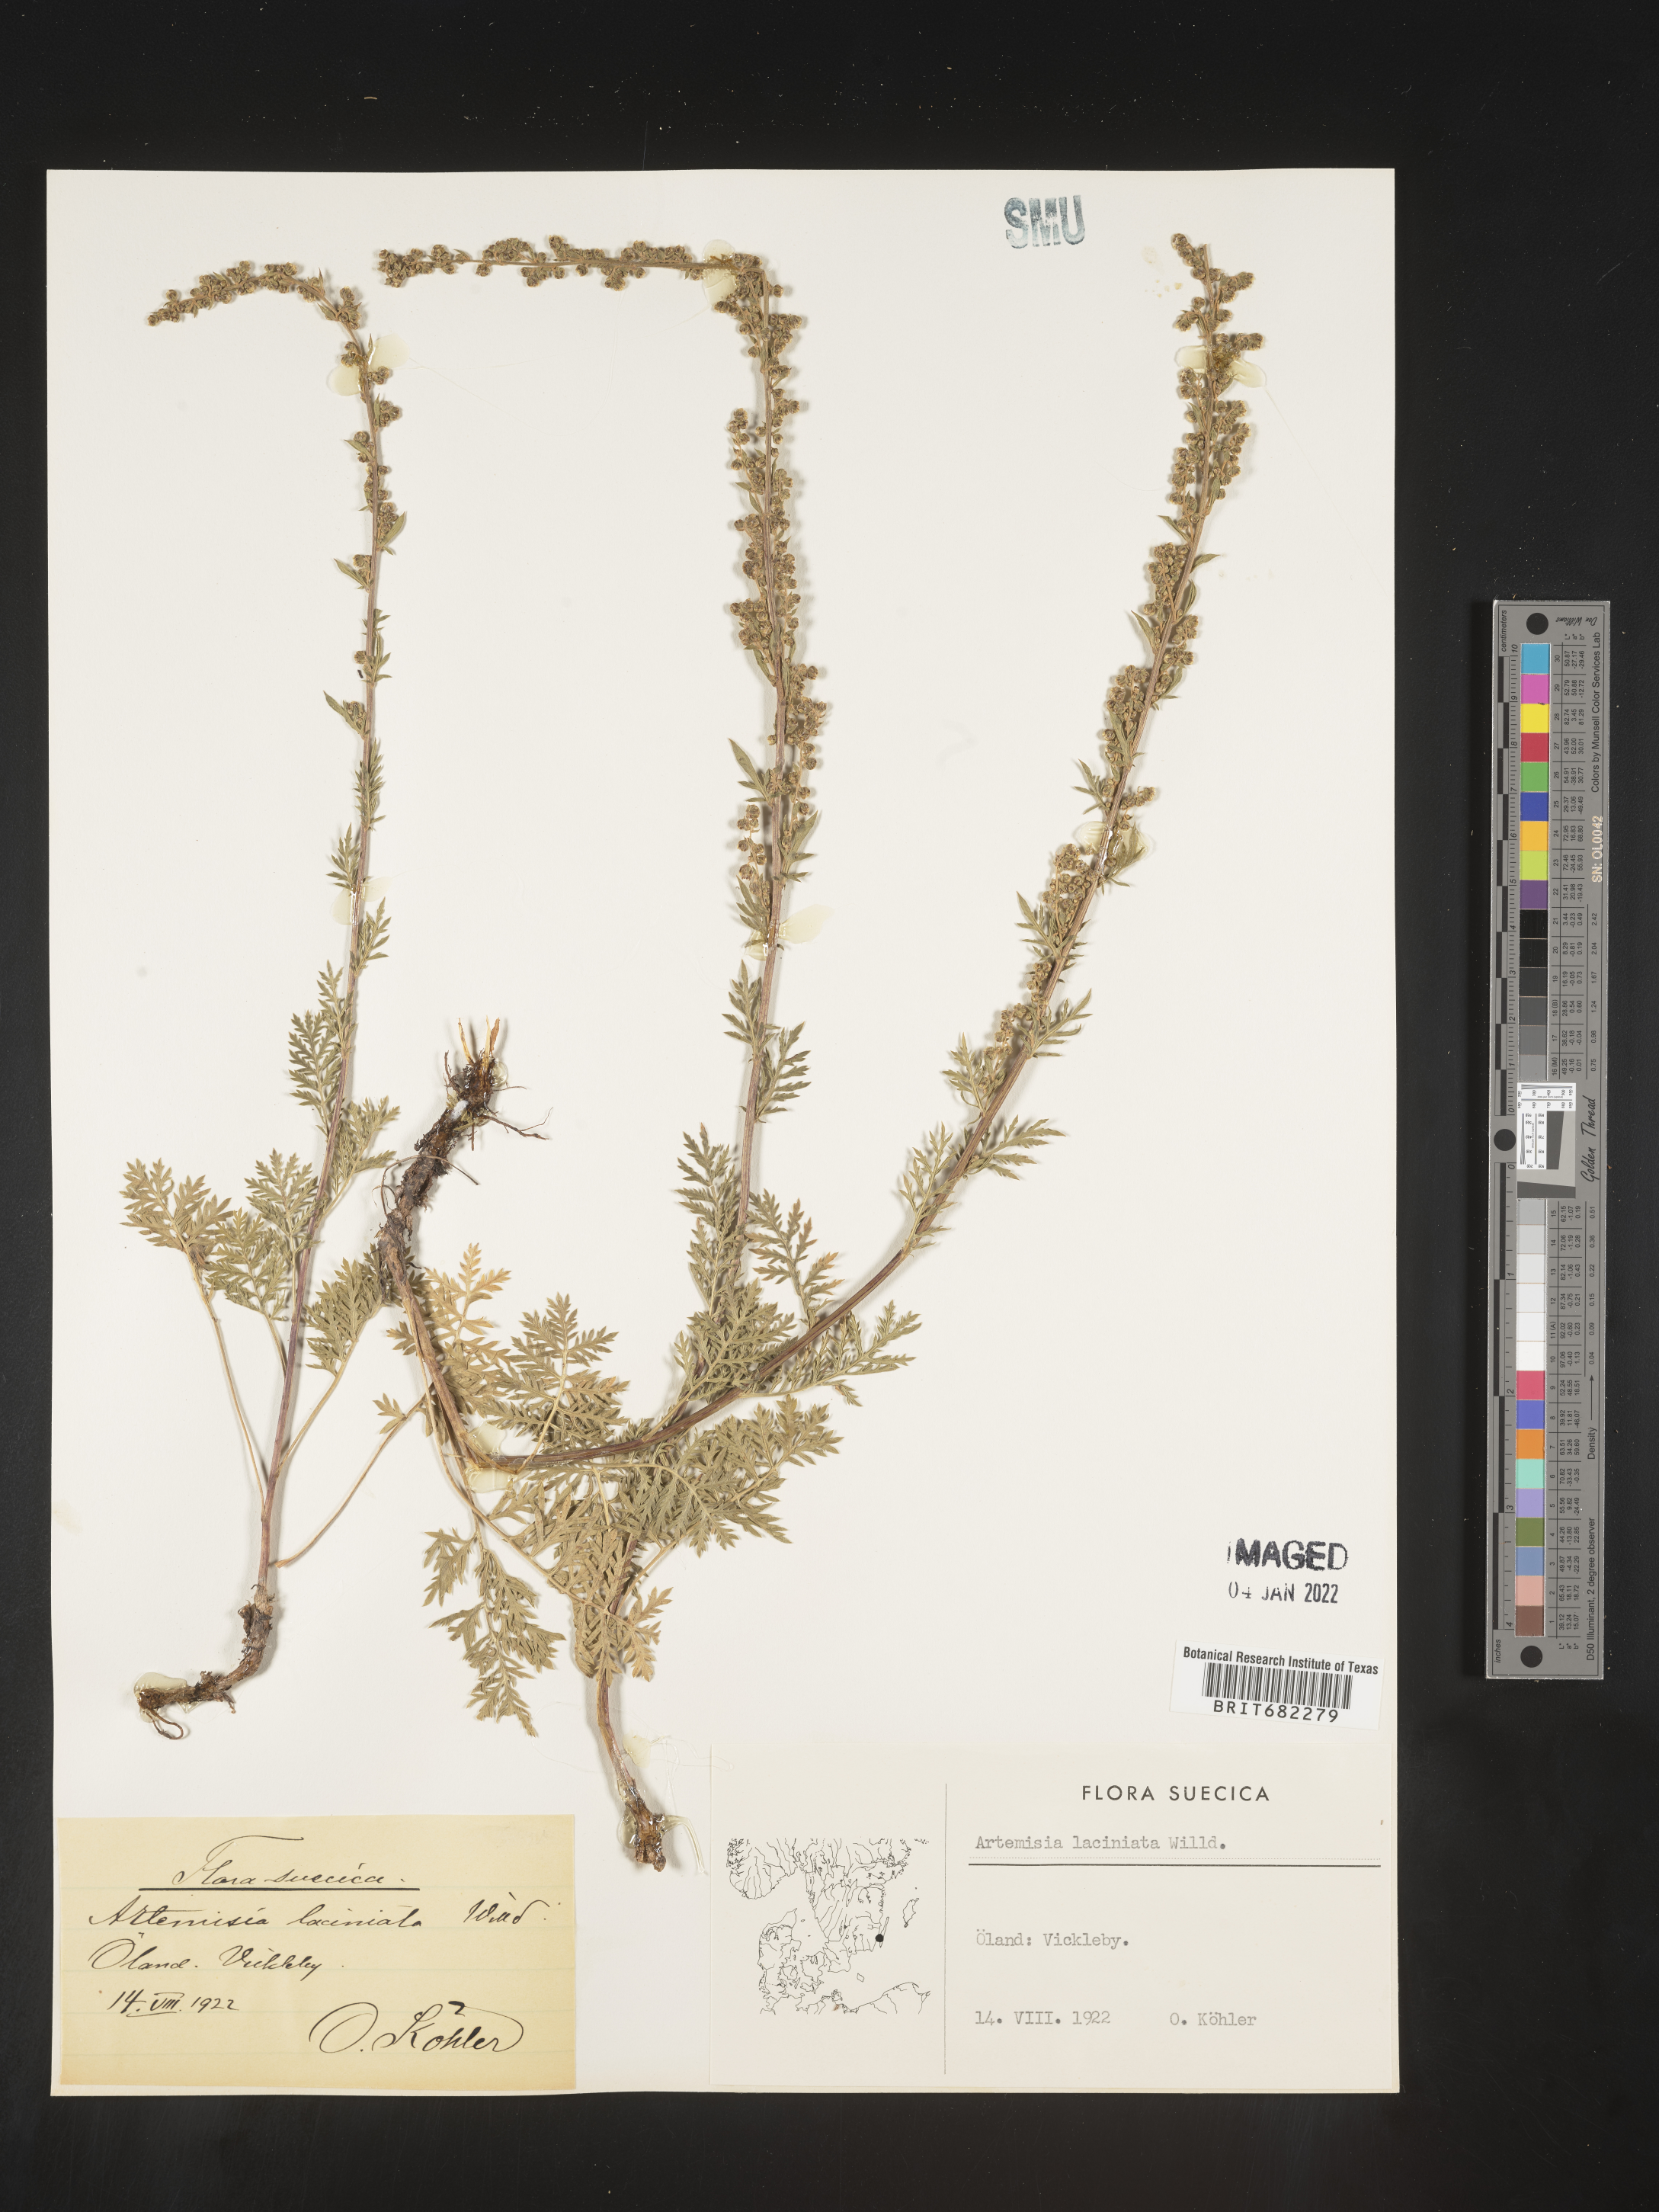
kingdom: Plantae
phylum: Tracheophyta
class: Magnoliopsida
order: Asterales
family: Asteraceae
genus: Artemisia
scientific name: Artemisia
